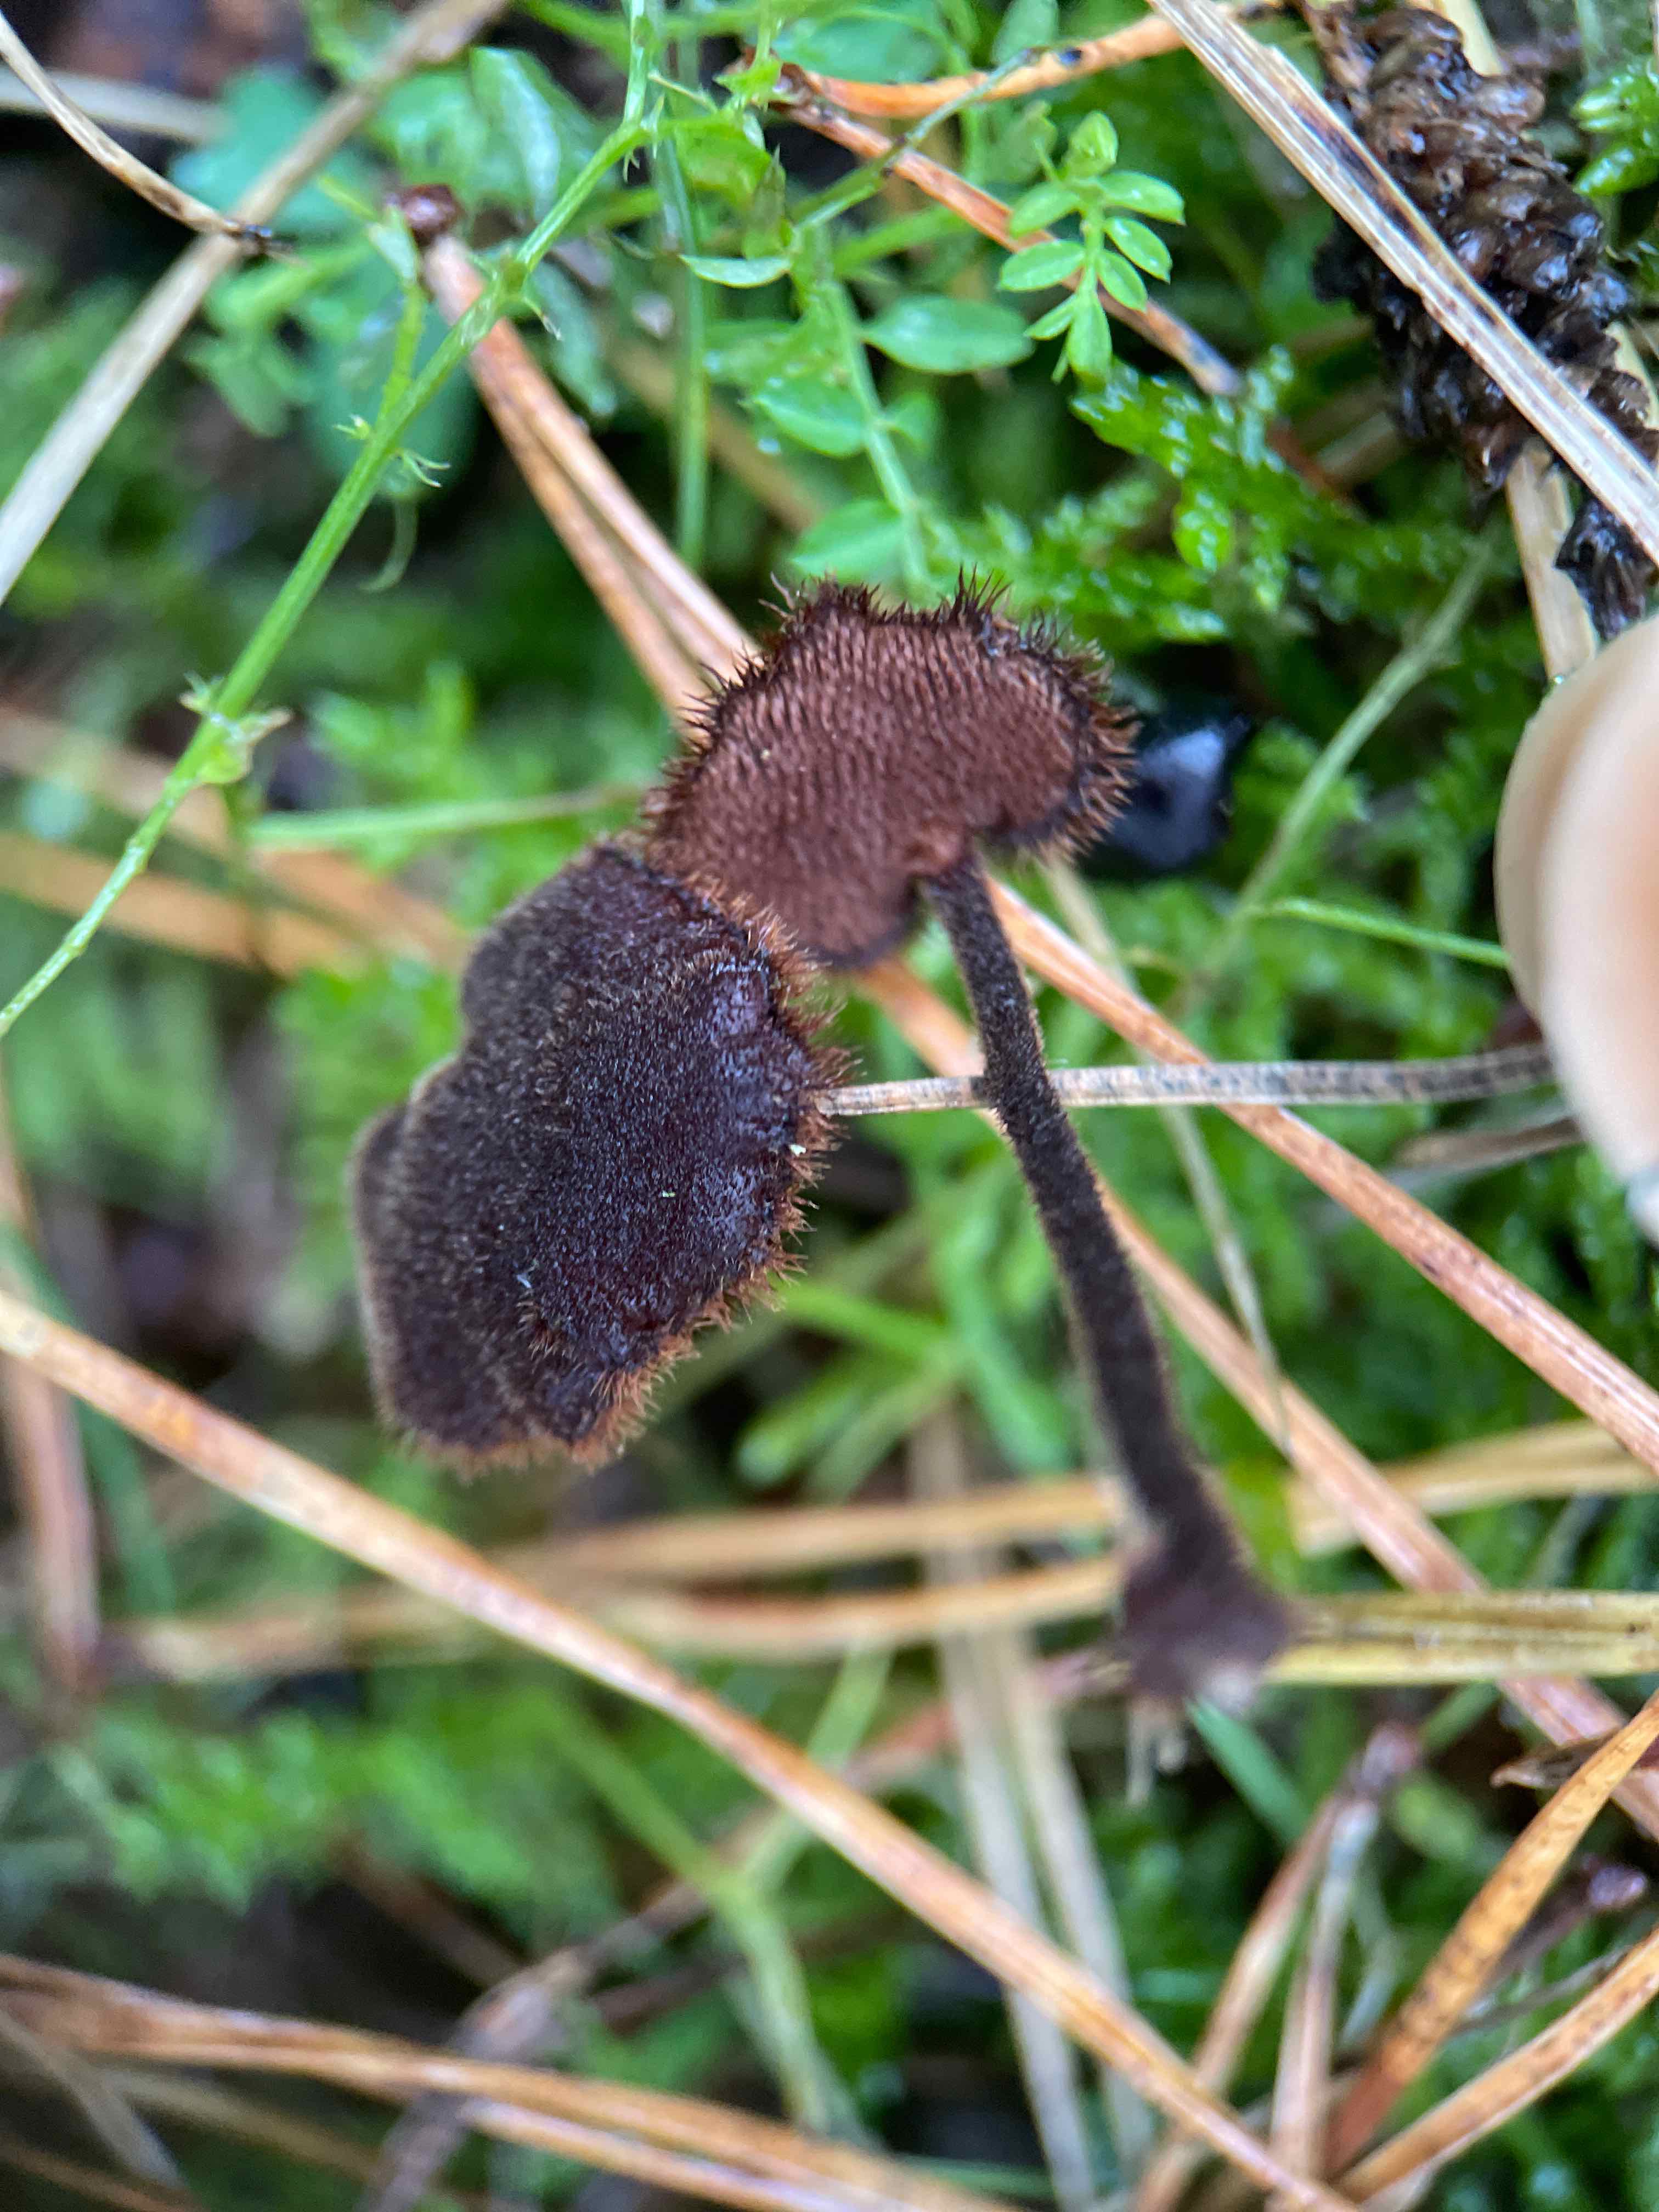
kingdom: Fungi
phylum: Basidiomycota
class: Agaricomycetes
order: Russulales
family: Auriscalpiaceae
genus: Auriscalpium
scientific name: Auriscalpium vulgare
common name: koglepigsvamp
